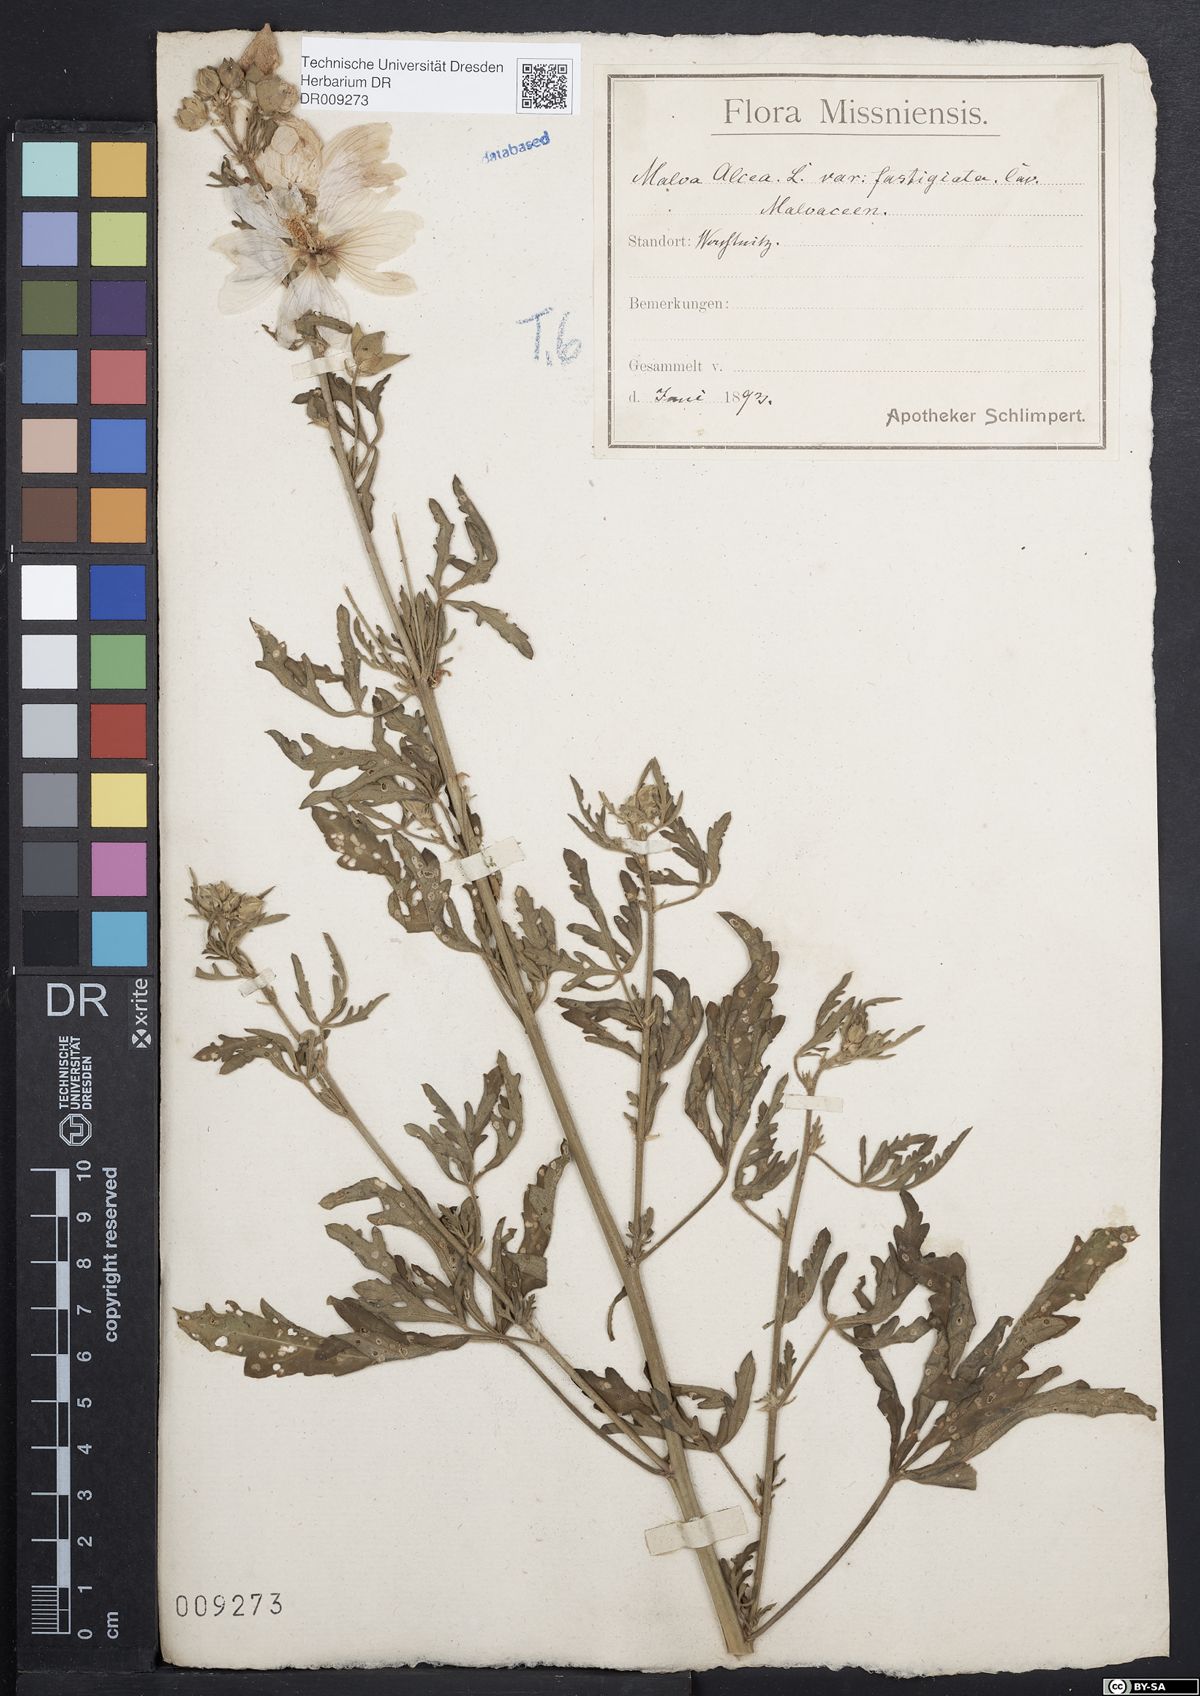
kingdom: Plantae
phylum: Tracheophyta
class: Magnoliopsida
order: Malvales
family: Malvaceae
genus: Malva
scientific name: Malva alcea
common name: Greater musk-mallow
